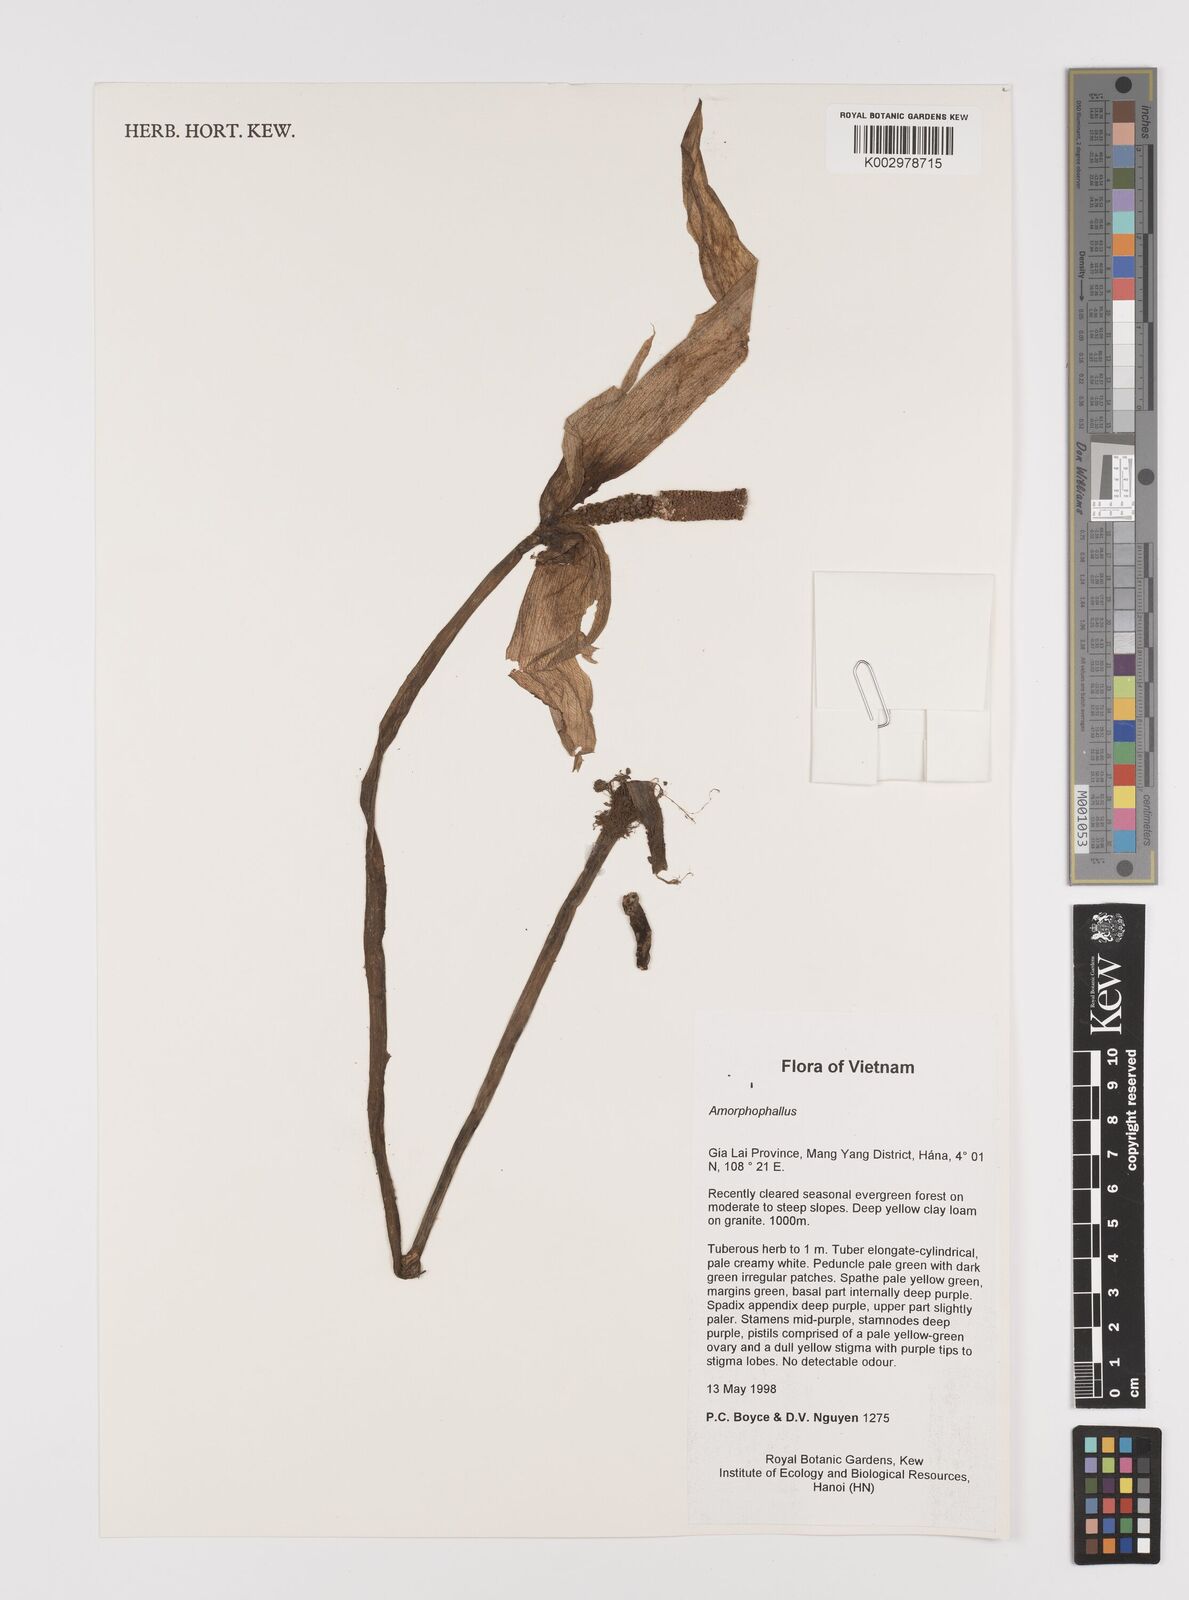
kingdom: Plantae
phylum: Tracheophyta
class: Liliopsida
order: Alismatales
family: Araceae
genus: Amorphophallus
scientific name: Amorphophallus napiger
